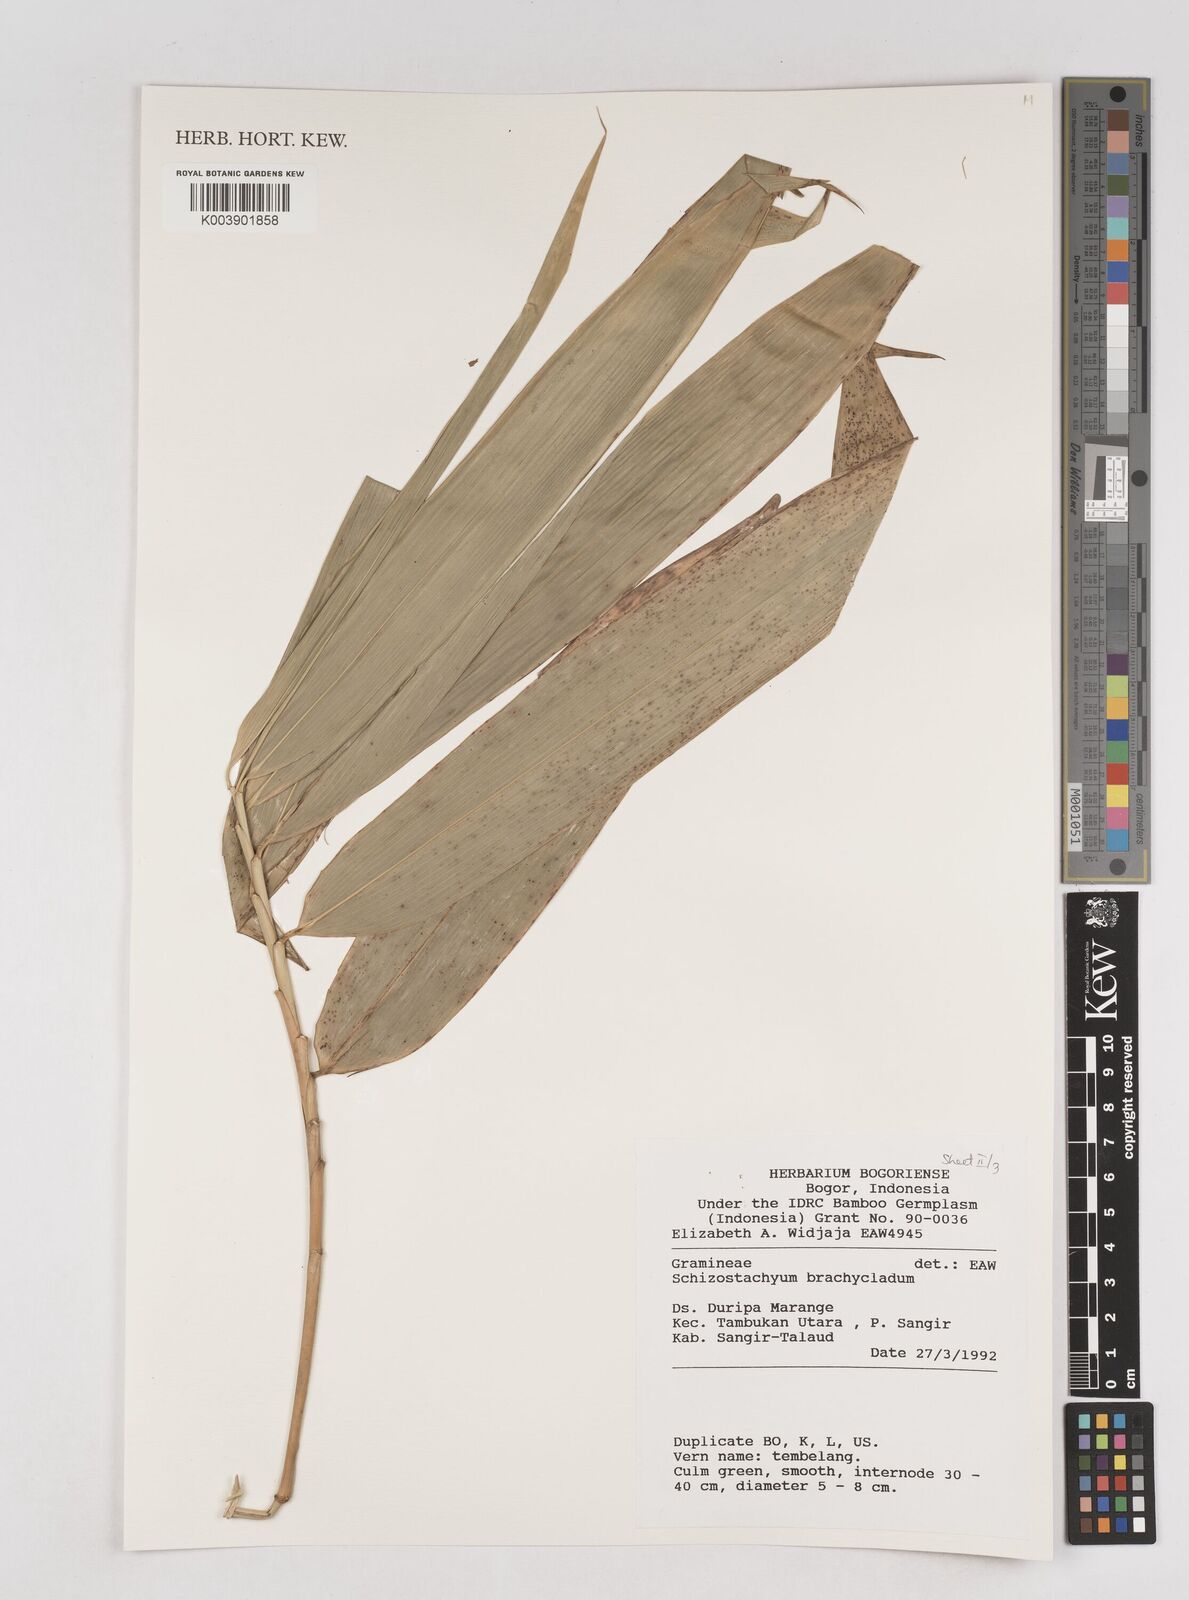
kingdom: Plantae
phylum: Tracheophyta
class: Liliopsida
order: Poales
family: Poaceae
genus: Schizostachyum
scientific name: Schizostachyum brachycladum
